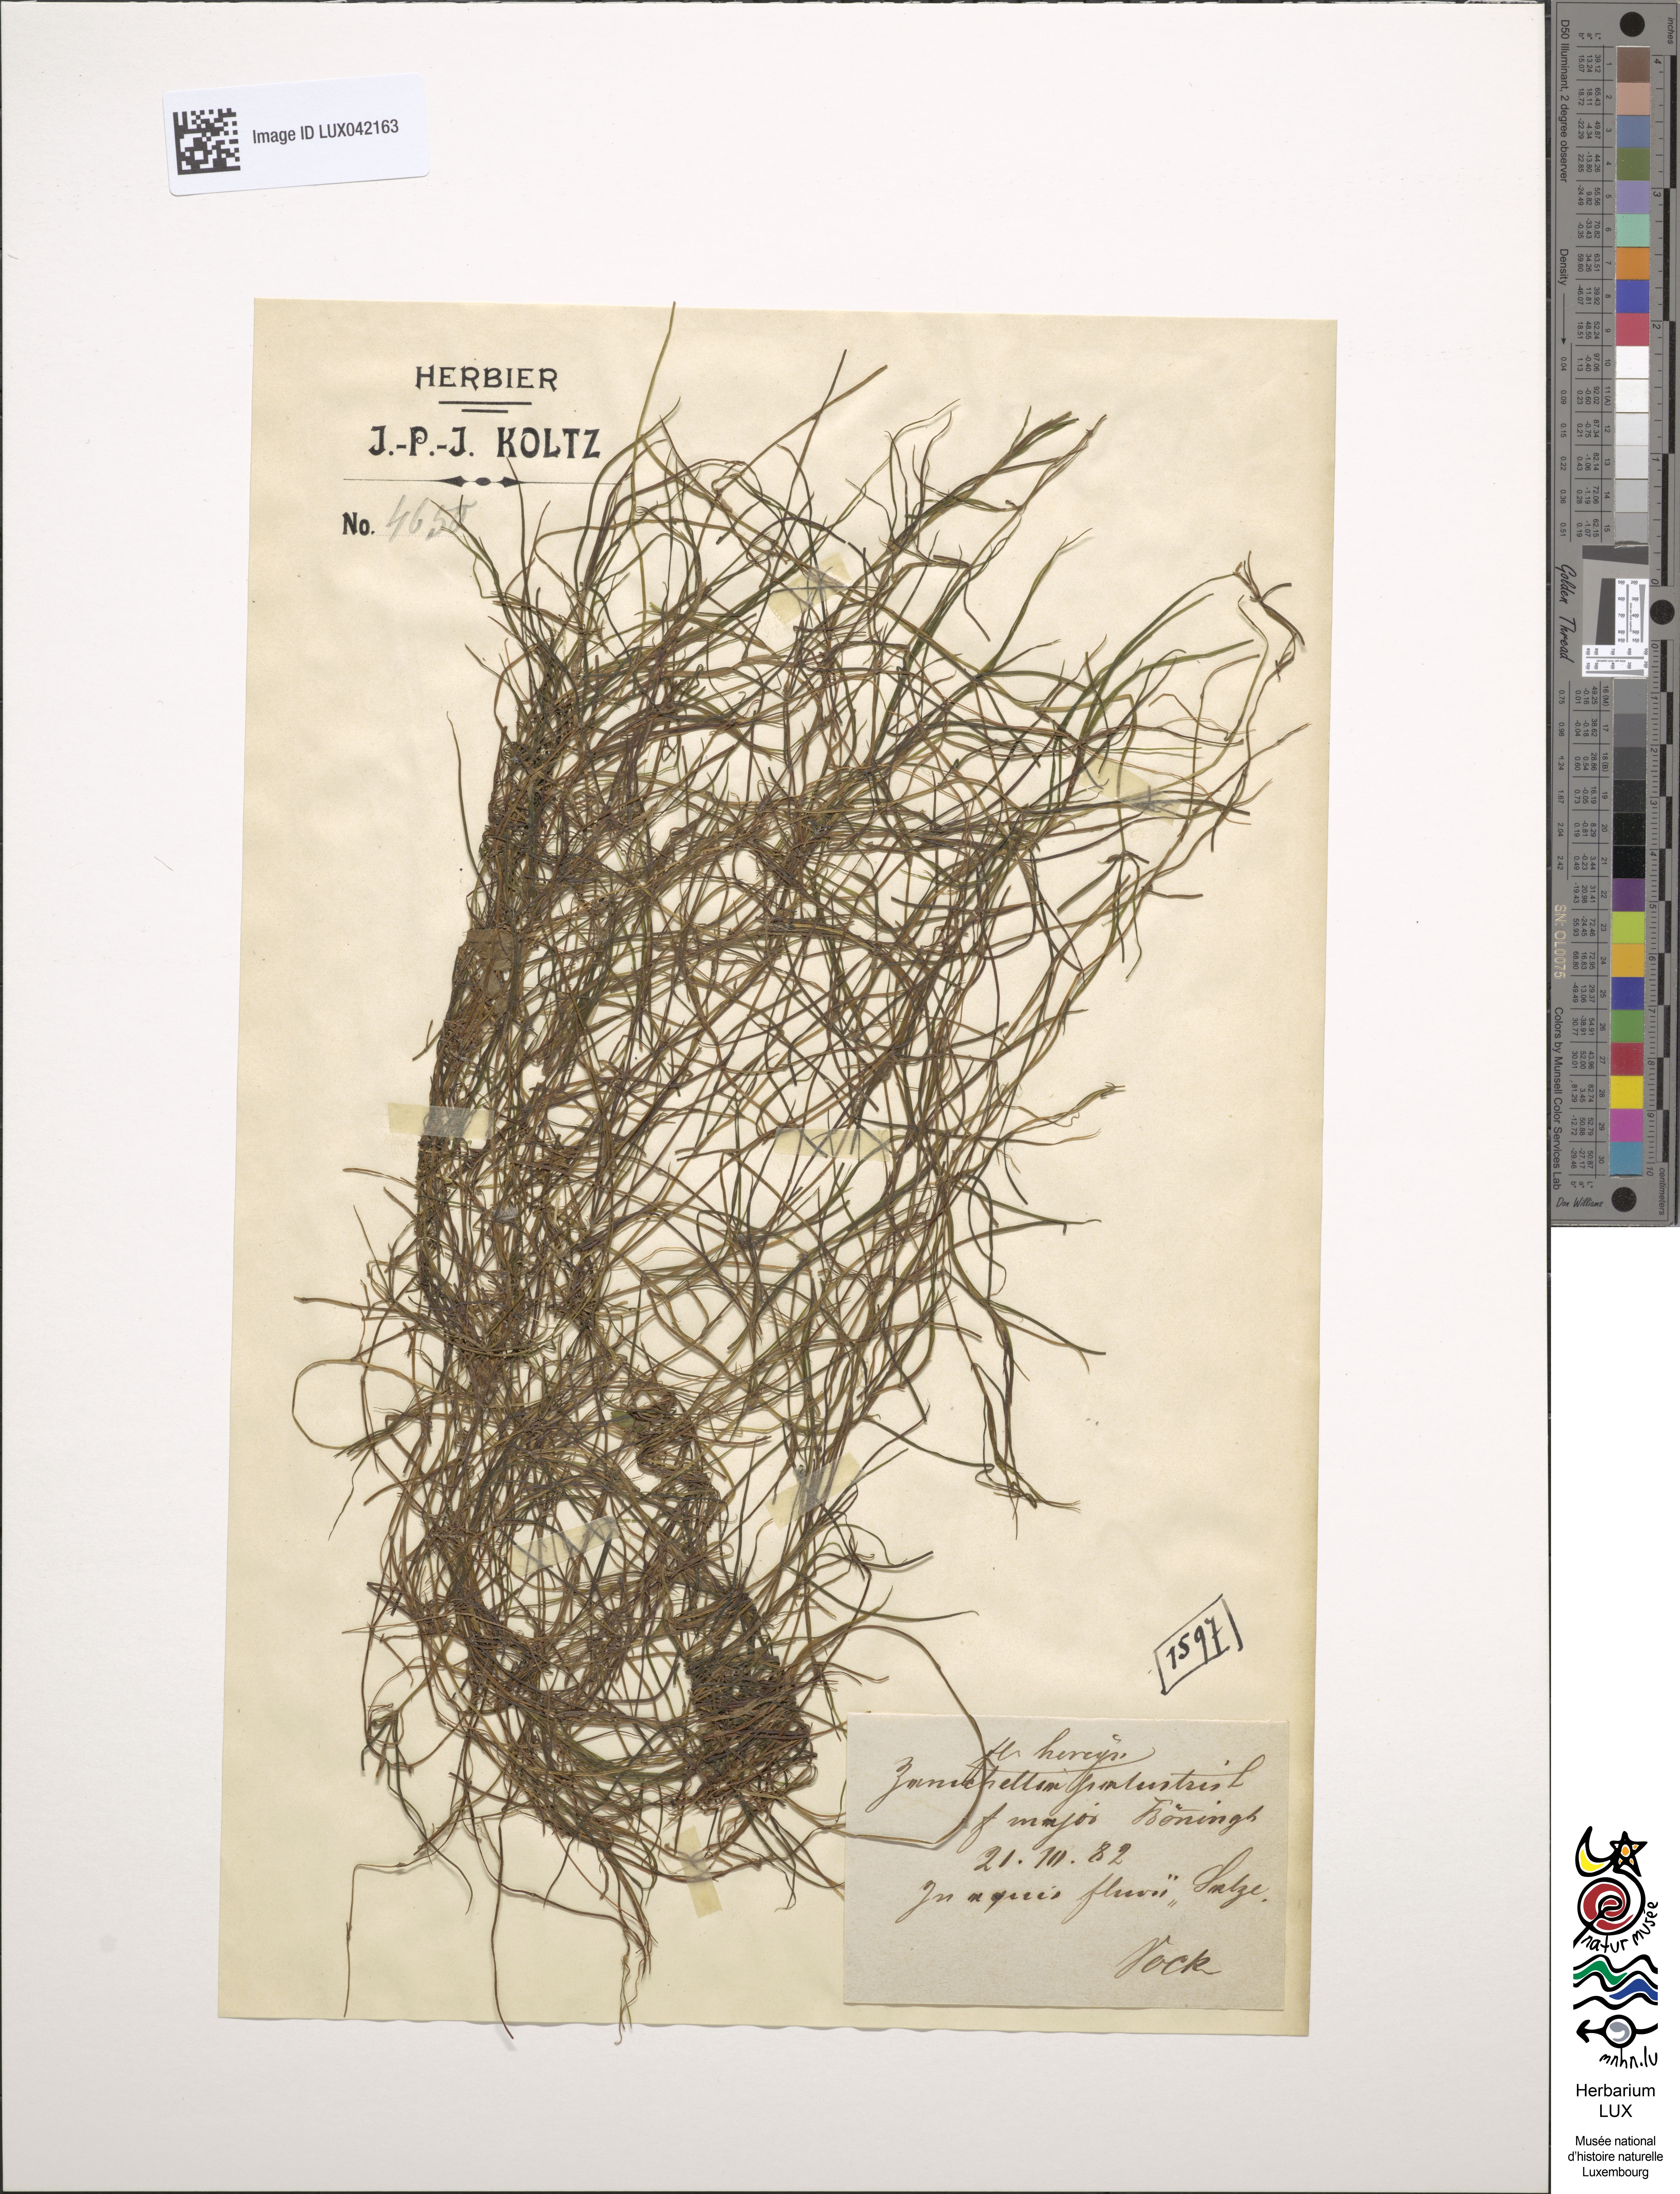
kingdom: Plantae
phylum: Tracheophyta
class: Liliopsida
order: Alismatales
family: Potamogetonaceae
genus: Zannichellia
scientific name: Zannichellia palustris
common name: Horned pondweed
